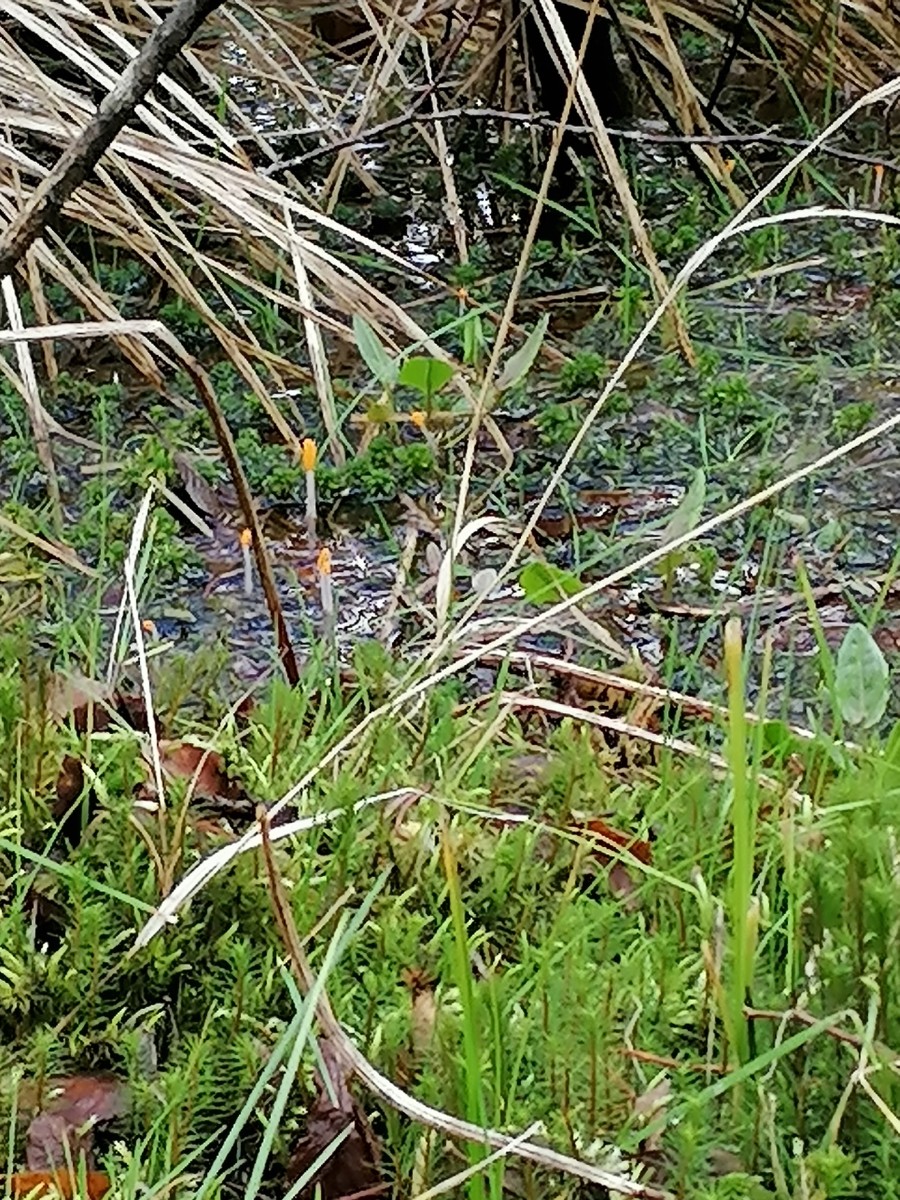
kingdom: Fungi
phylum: Ascomycota
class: Leotiomycetes
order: Helotiales
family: Cenangiaceae
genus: Mitrula
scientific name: Mitrula paludosa
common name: gul nøkketunge
